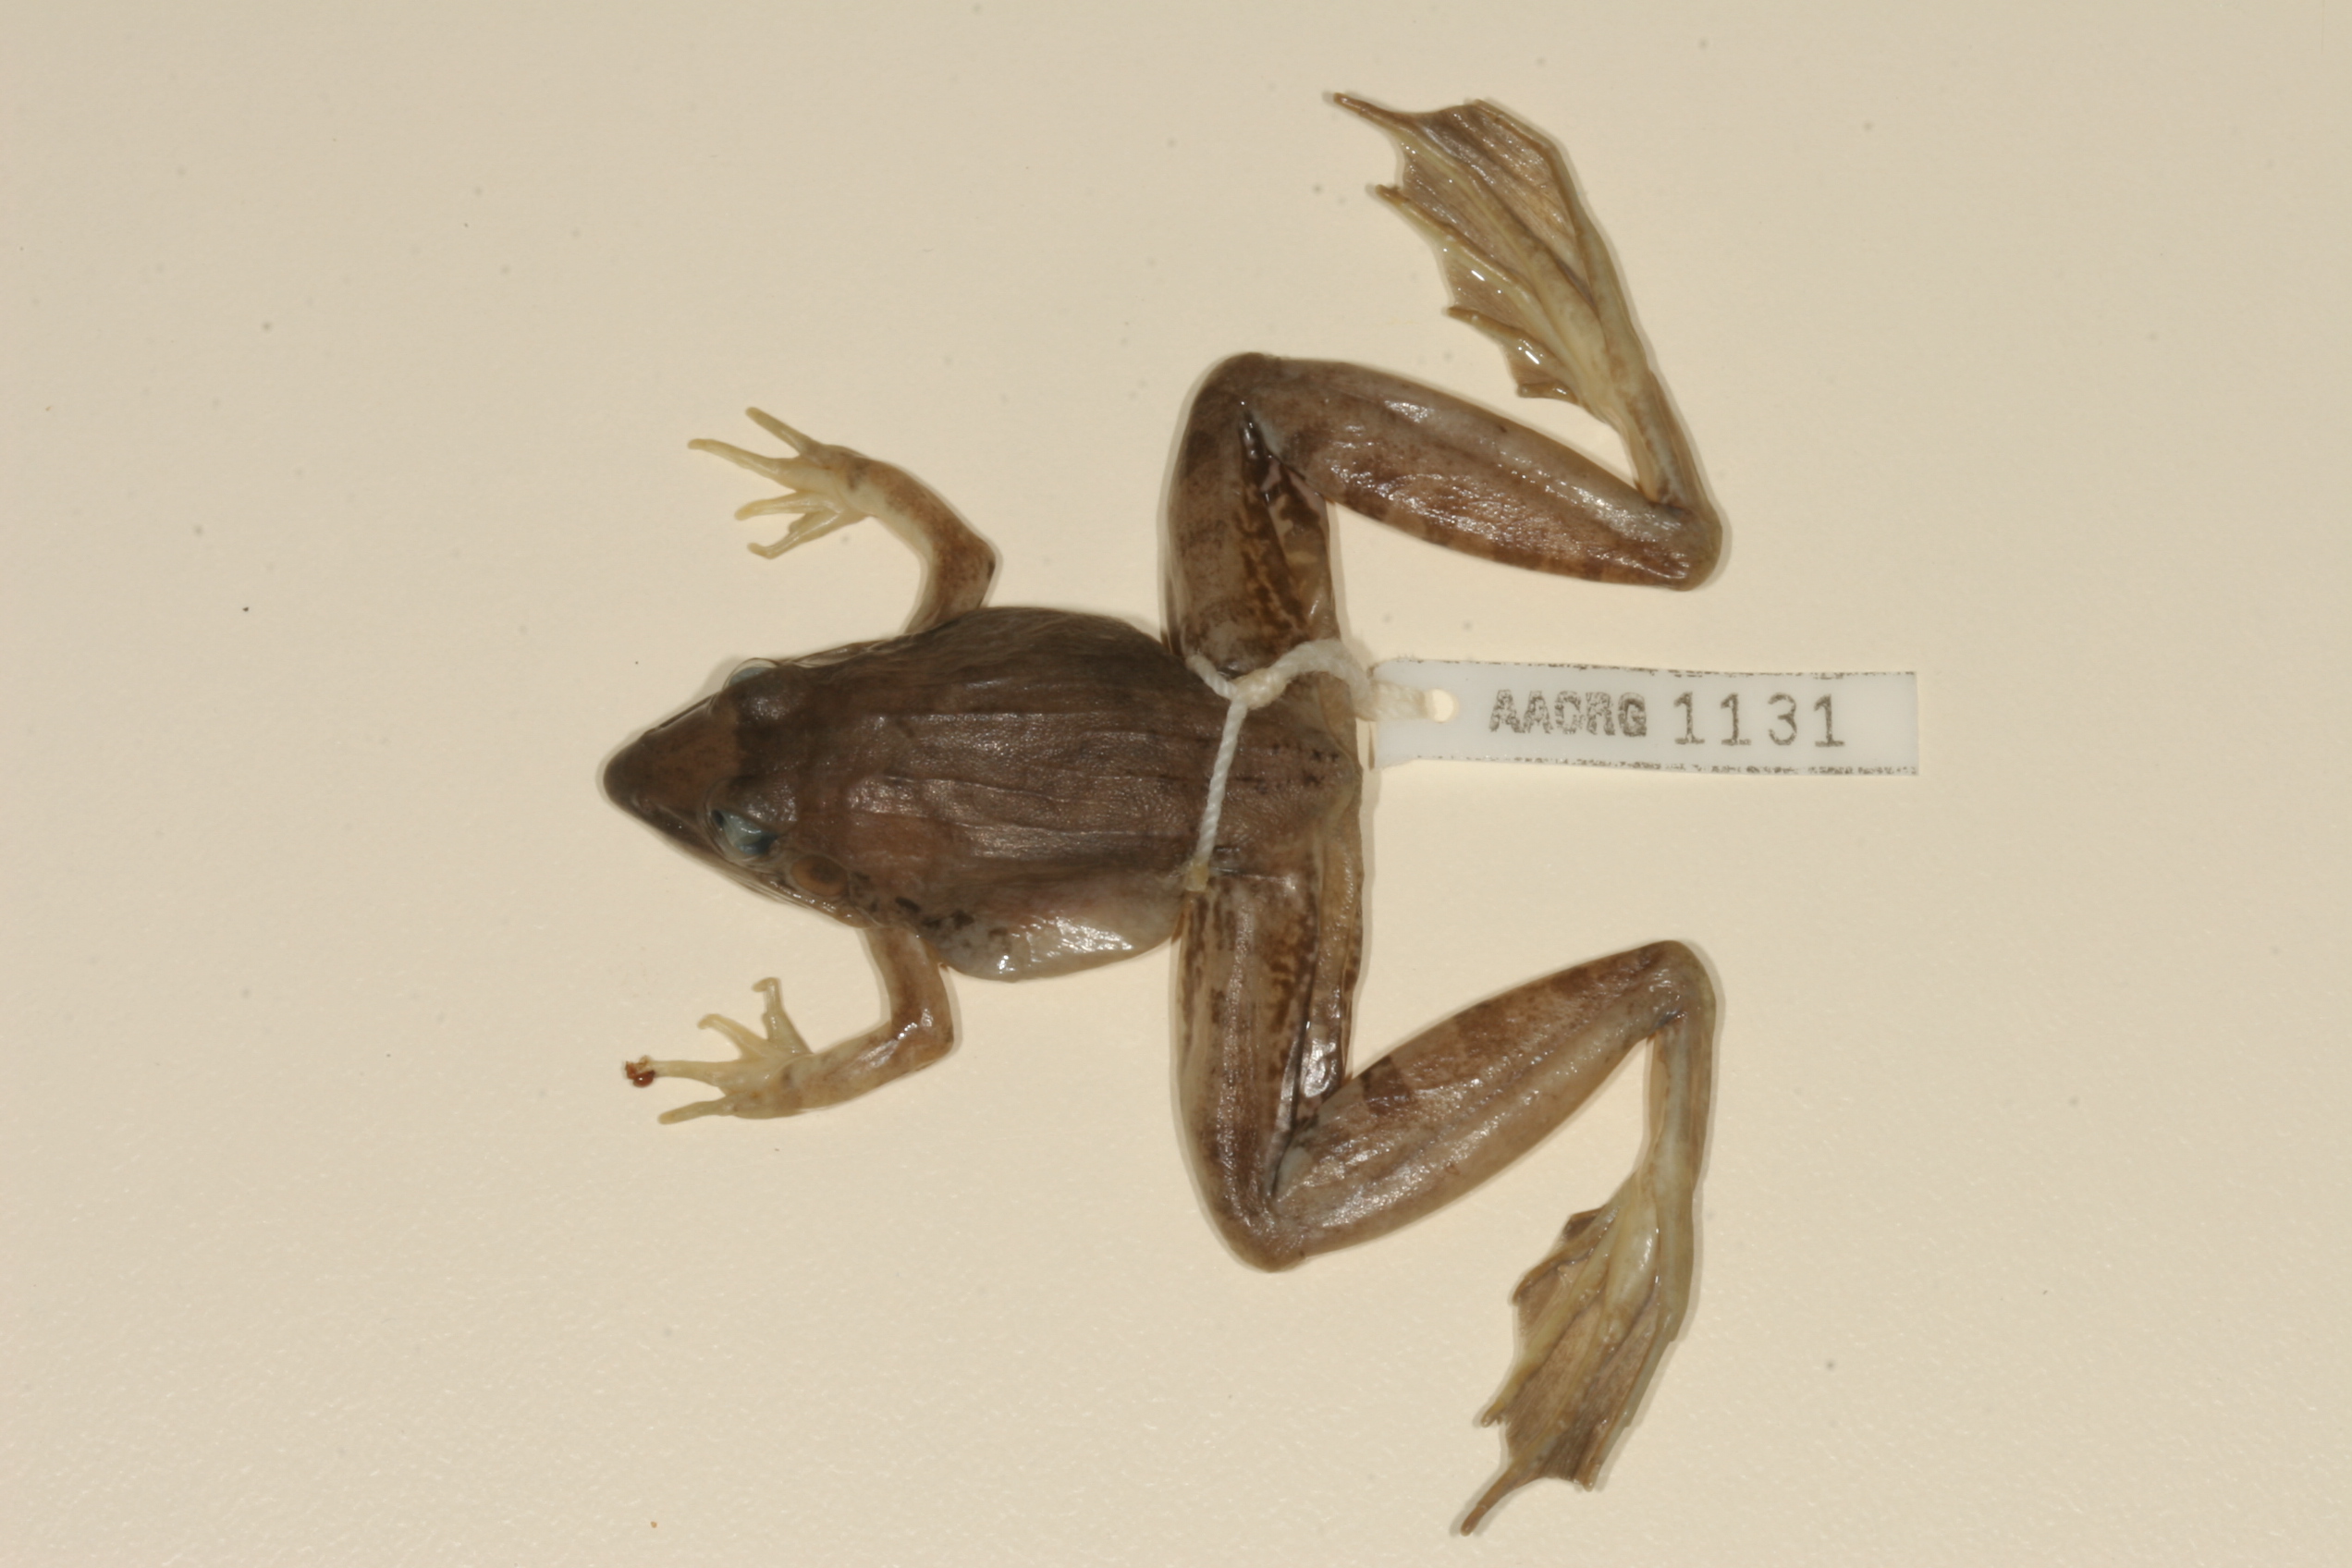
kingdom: Animalia
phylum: Chordata
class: Amphibia
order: Anura
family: Ptychadenidae
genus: Ptychadena
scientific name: Ptychadena anchietae
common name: Anchieta's ridged frog
